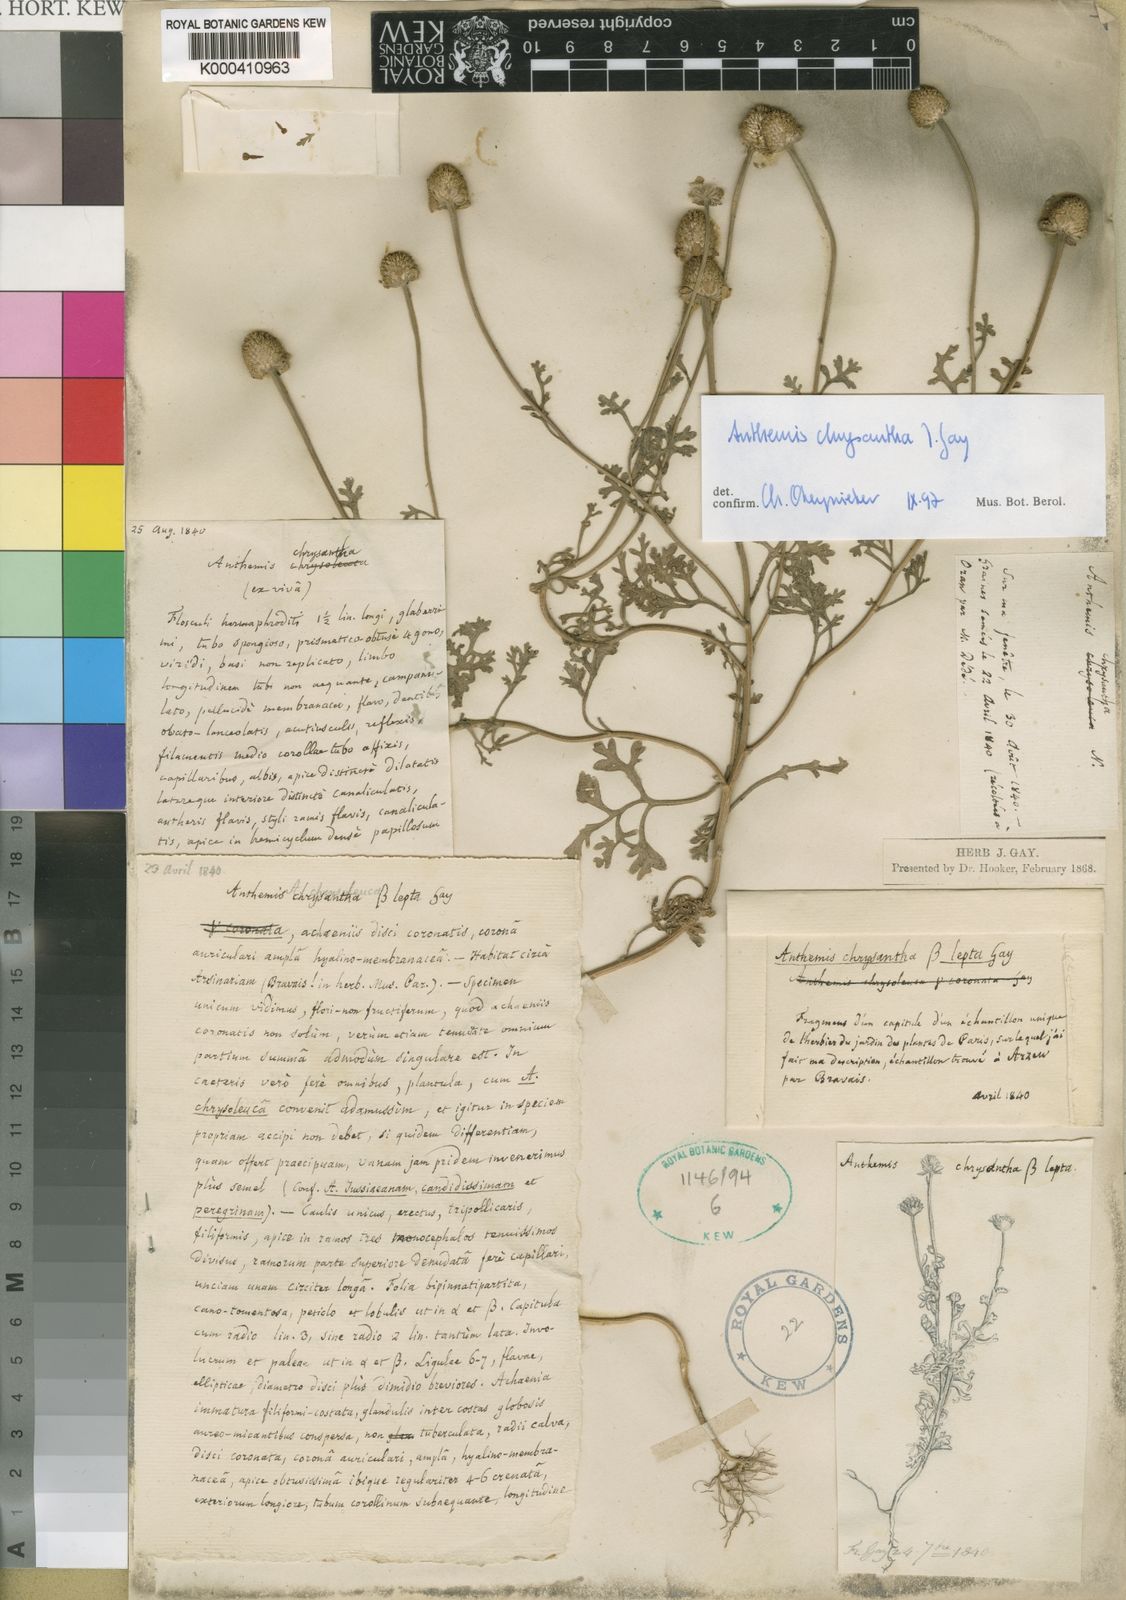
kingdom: Plantae
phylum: Tracheophyta
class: Magnoliopsida
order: Asterales
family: Asteraceae
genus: Anthemis
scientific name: Anthemis chrysantha
